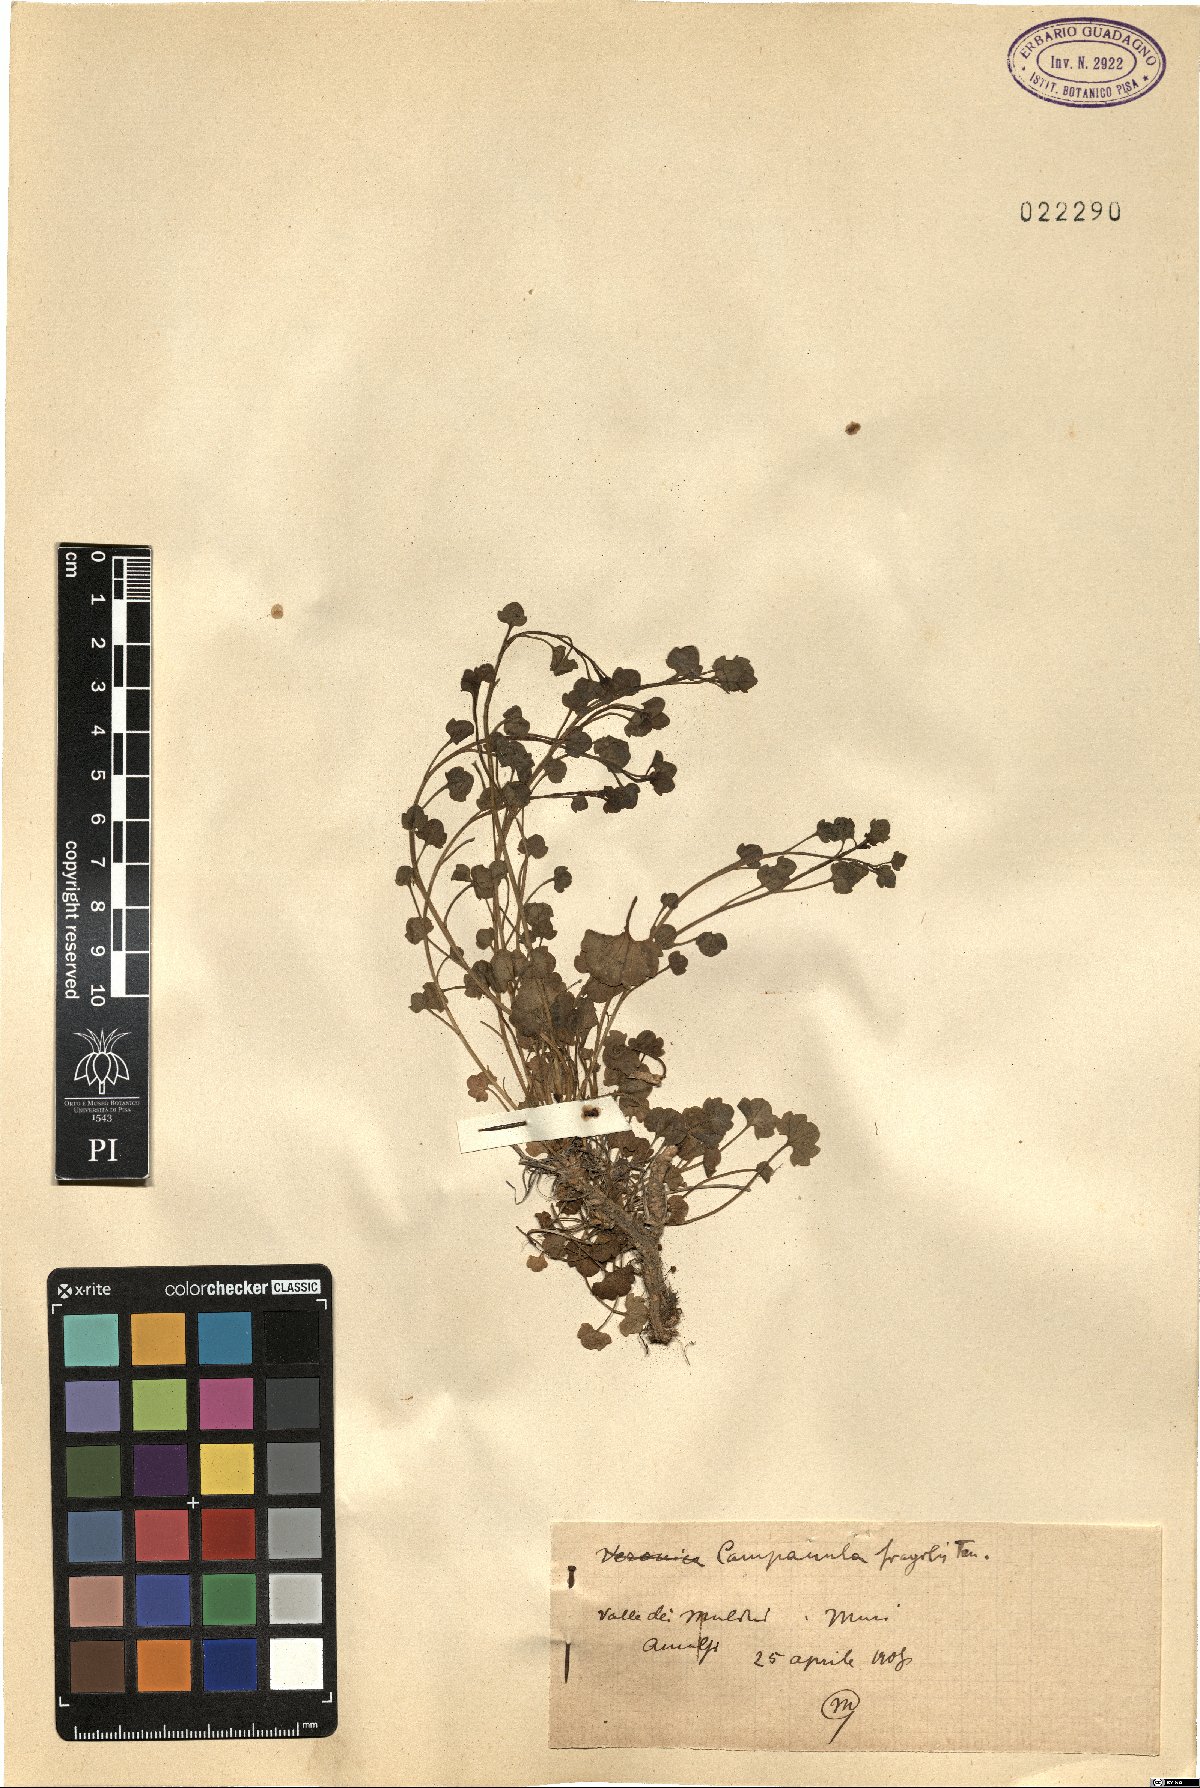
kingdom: Plantae
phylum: Tracheophyta
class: Magnoliopsida
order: Asterales
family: Campanulaceae
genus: Campanula
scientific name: Campanula fragilis
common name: Italian bellflower
